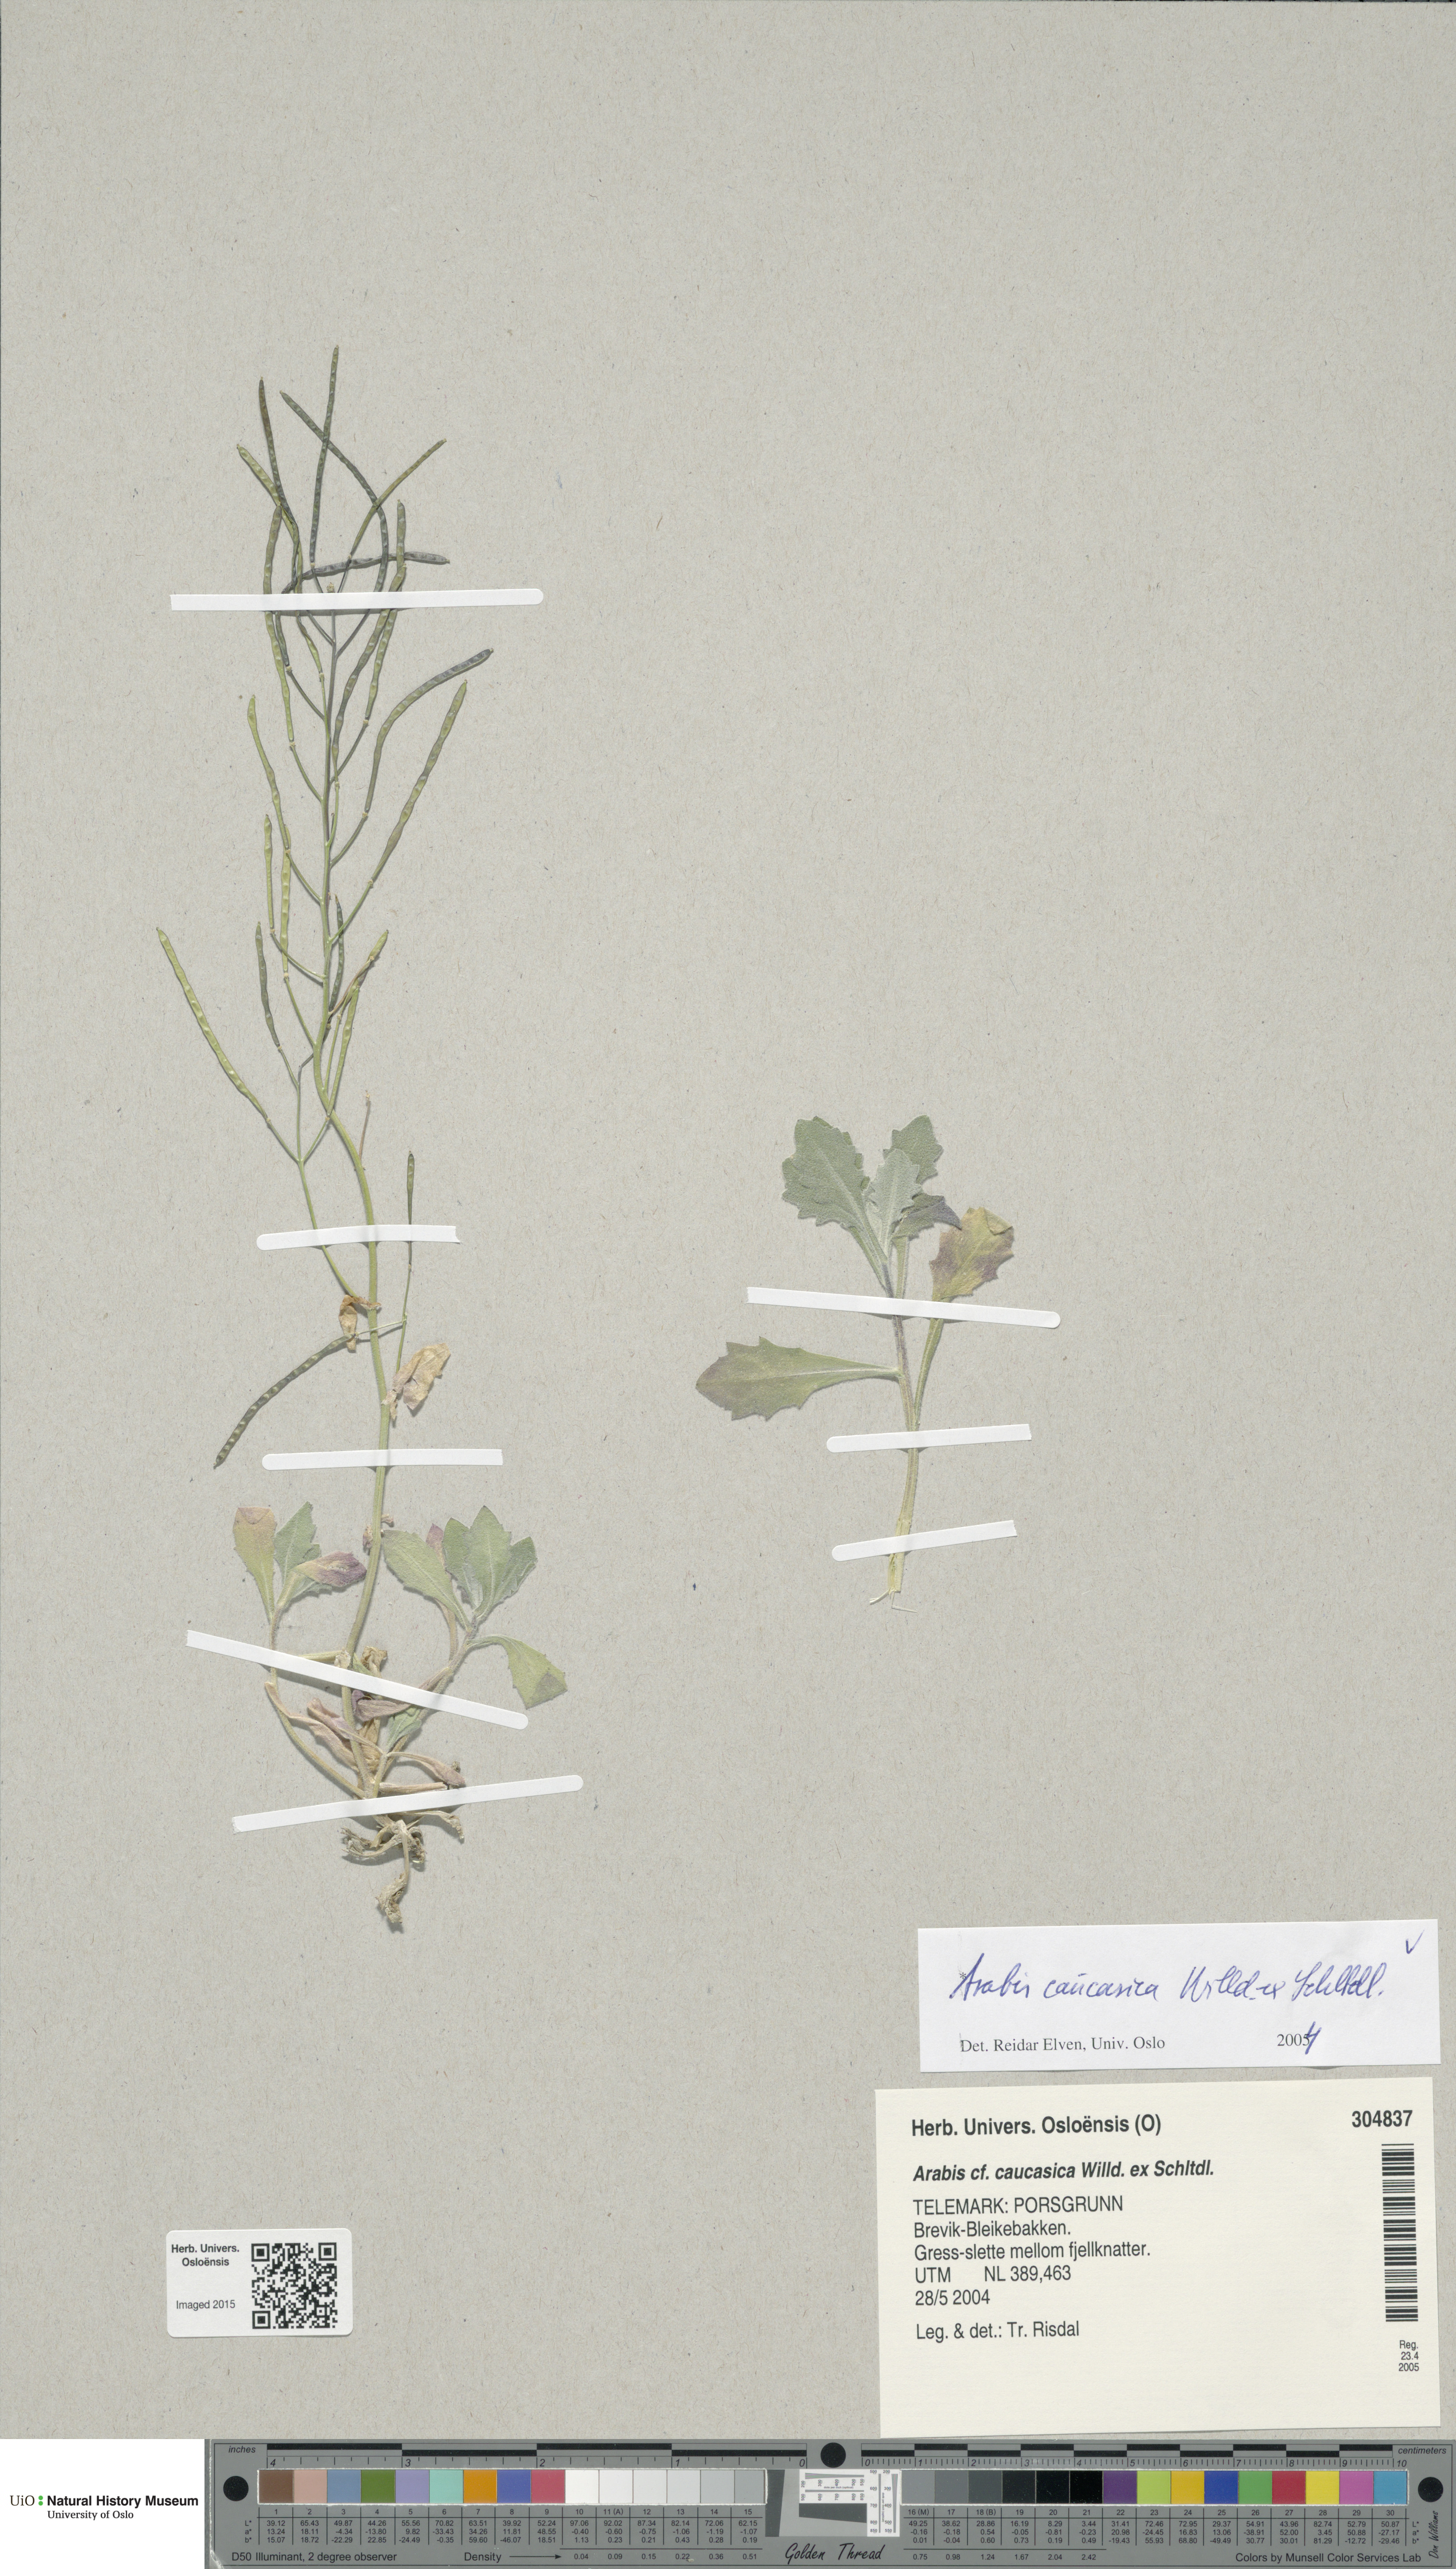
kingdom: Plantae
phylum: Tracheophyta
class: Magnoliopsida
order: Brassicales
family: Brassicaceae
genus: Arabis
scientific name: Arabis caucasica
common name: Gray rockcress
